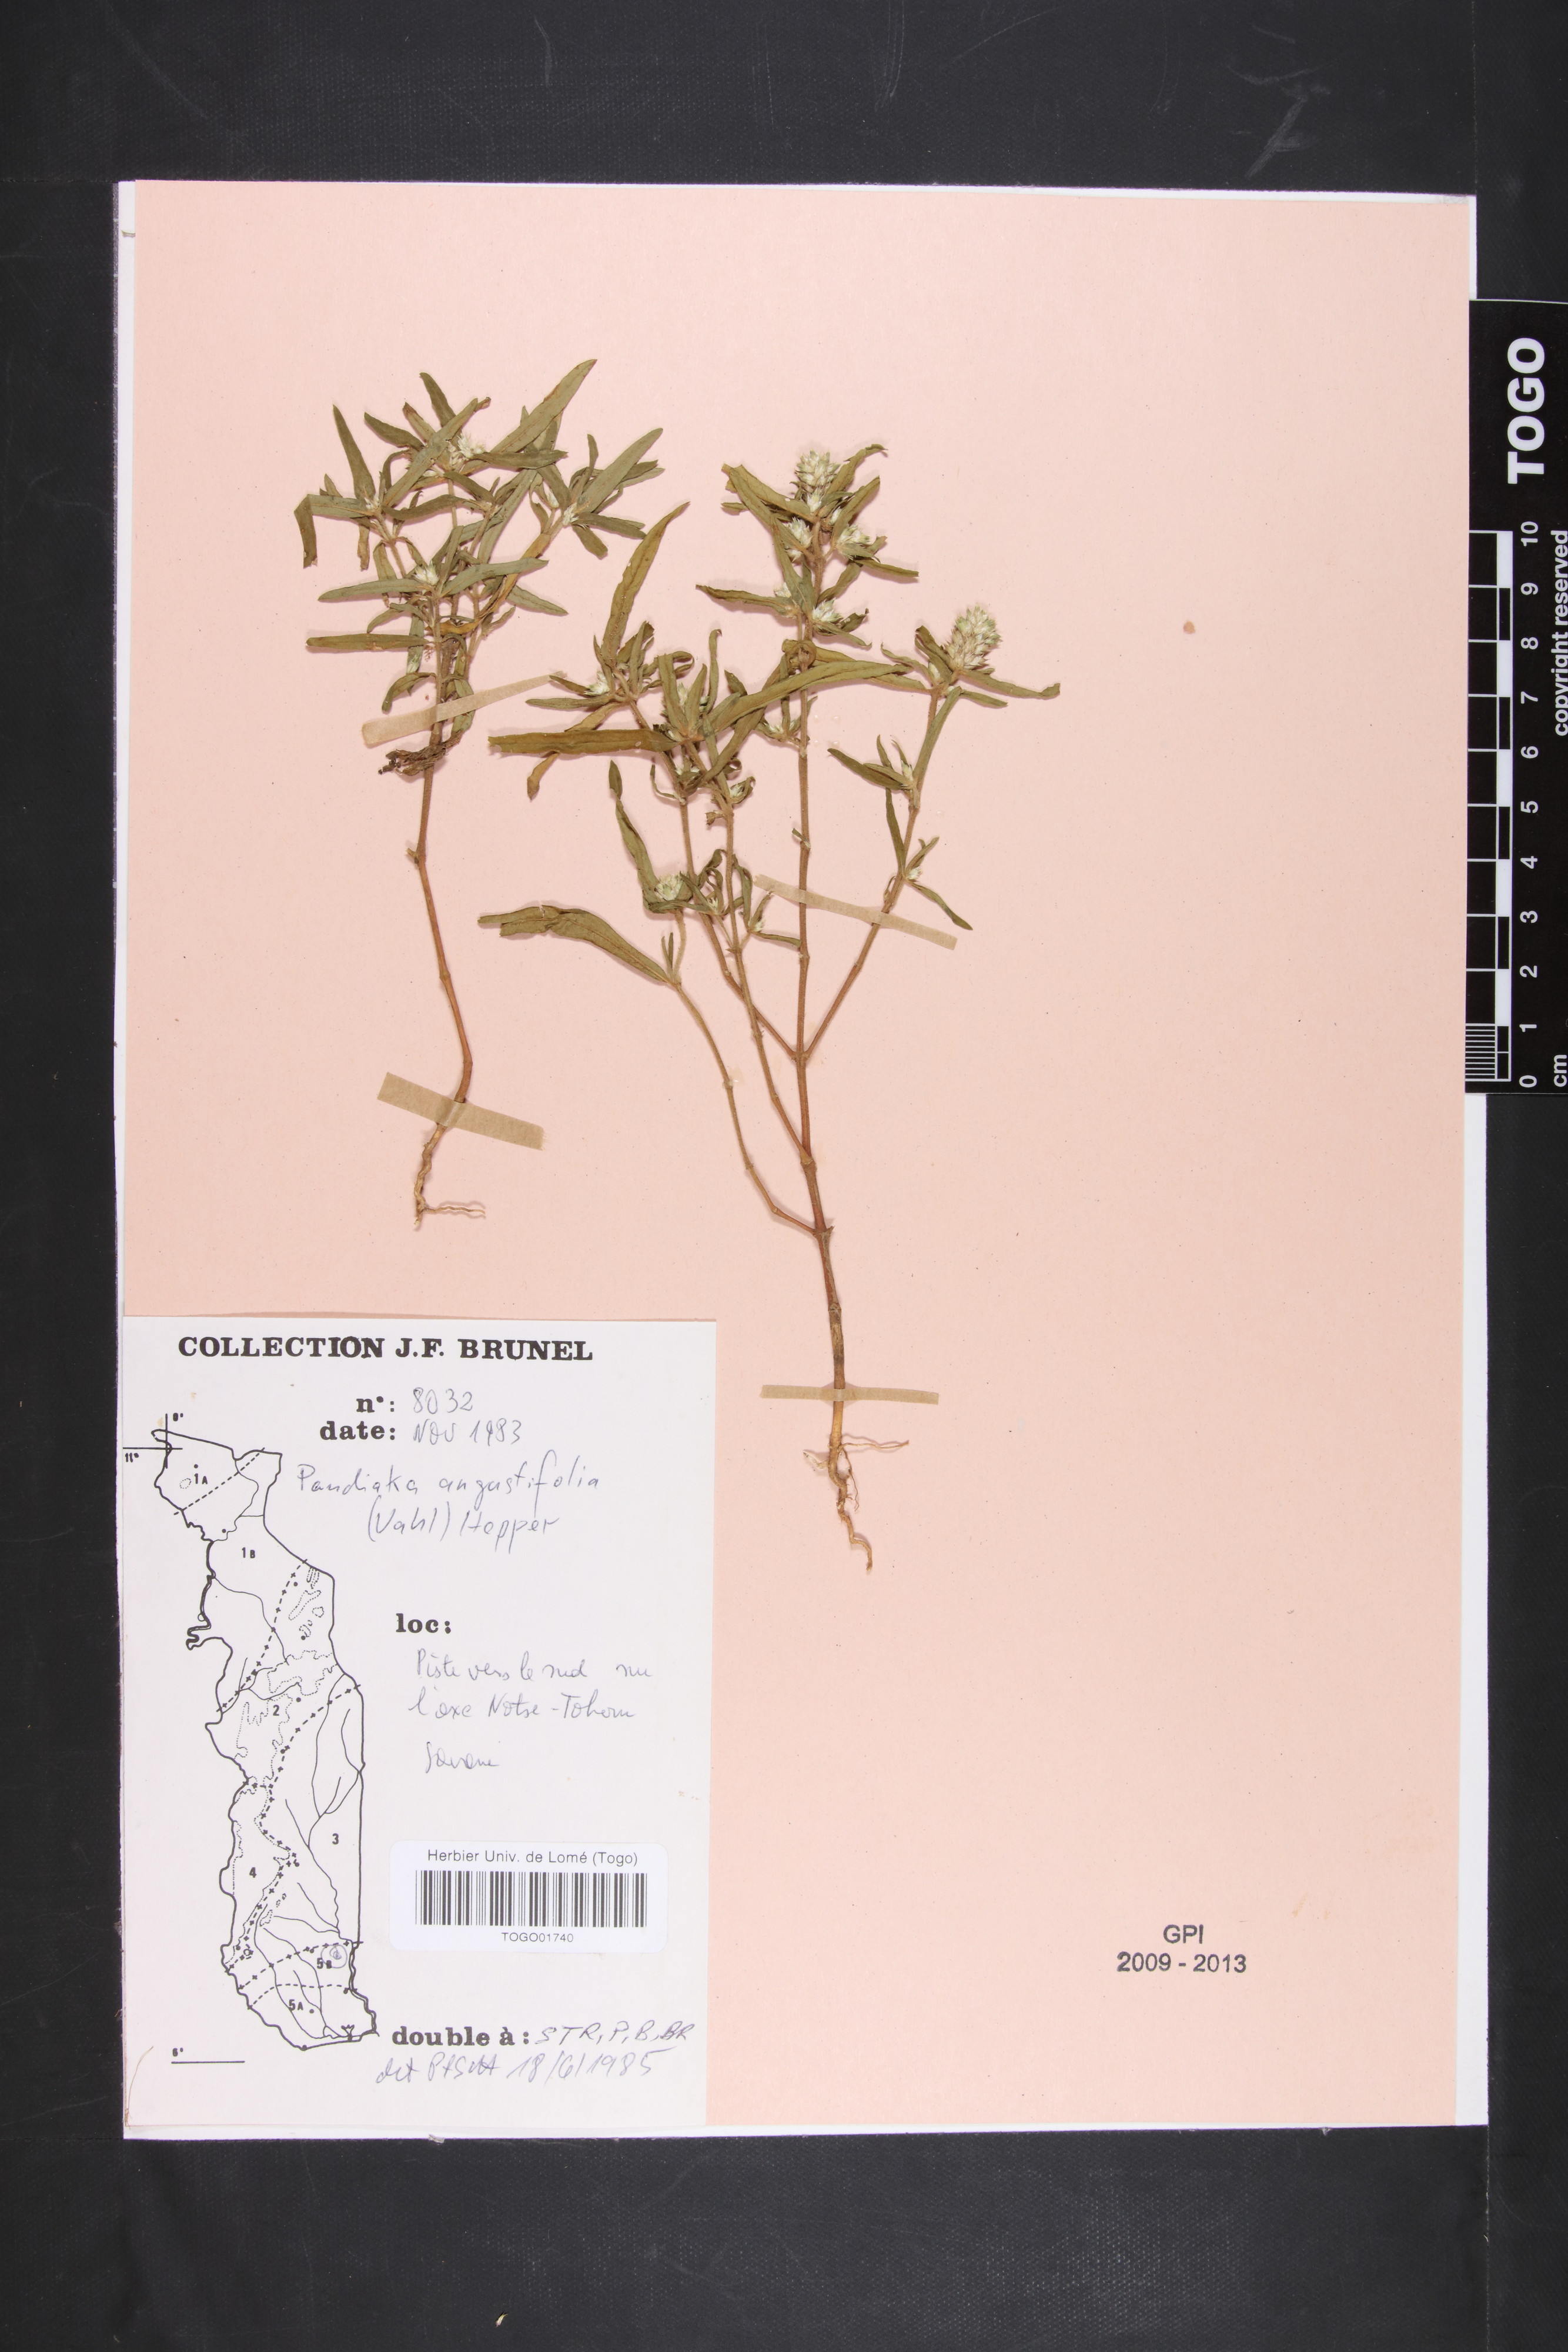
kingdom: Plantae
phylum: Tracheophyta
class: Magnoliopsida
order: Caryophyllales
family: Amaranthaceae
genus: Pandiaka
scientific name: Pandiaka angustifolia
